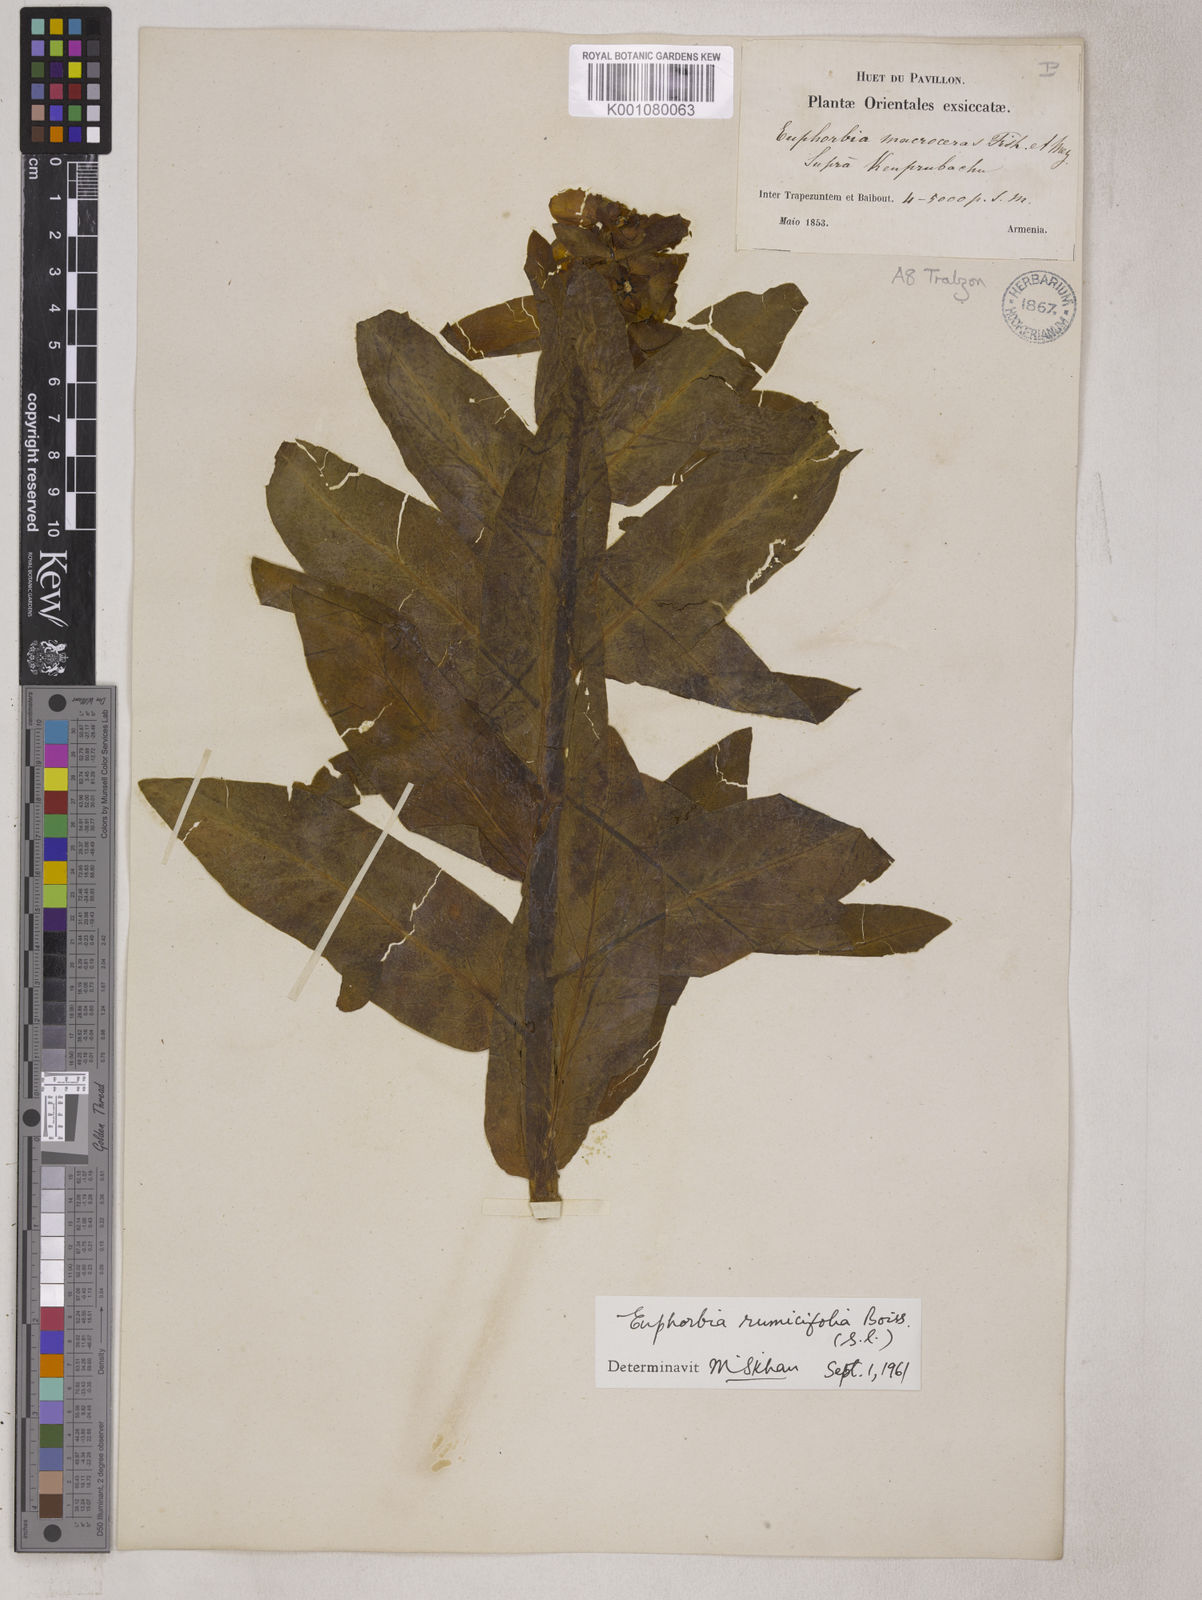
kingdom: Plantae
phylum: Tracheophyta
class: Magnoliopsida
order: Malpighiales
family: Euphorbiaceae
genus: Euphorbia
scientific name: Euphorbia oblongifolia
